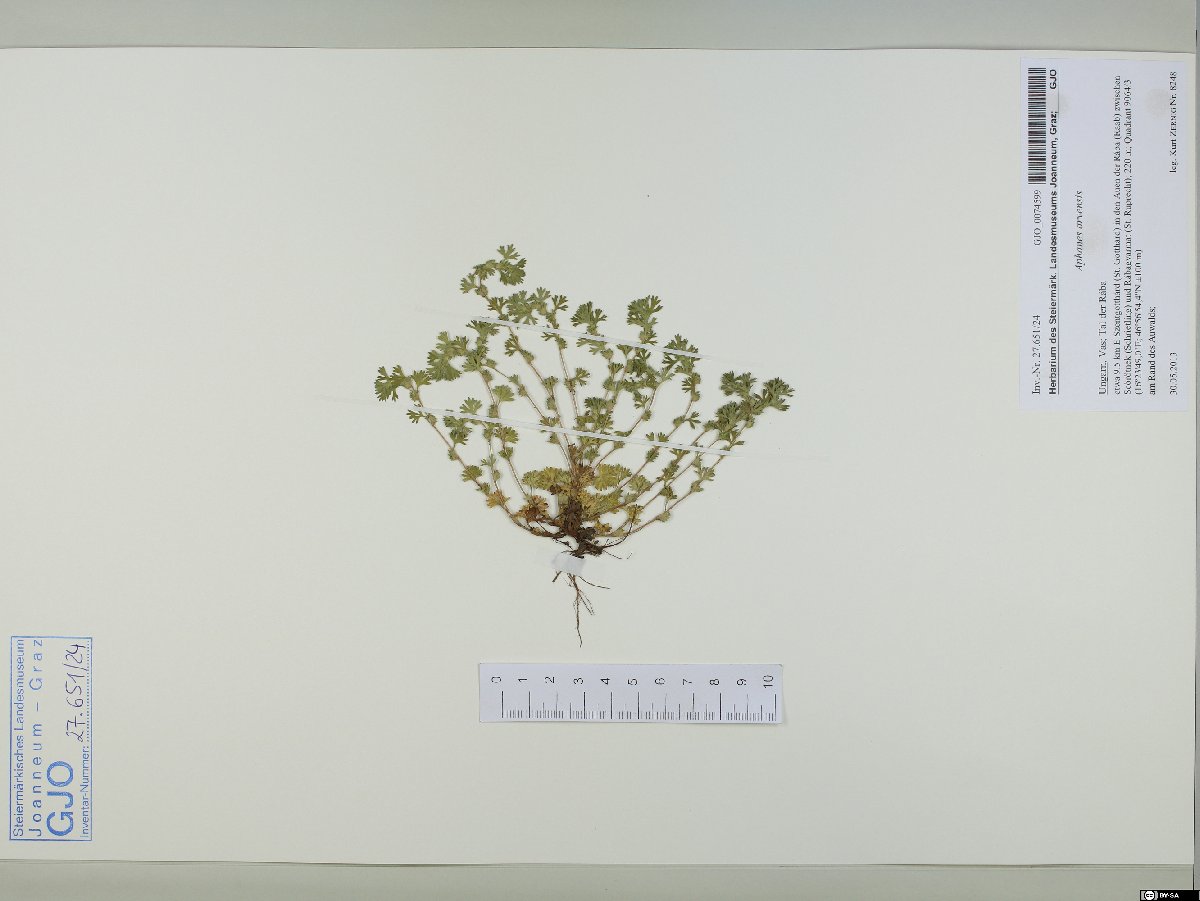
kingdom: Plantae
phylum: Tracheophyta
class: Magnoliopsida
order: Rosales
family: Rosaceae
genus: Aphanes
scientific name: Aphanes arvensis
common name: Parsley-piert
